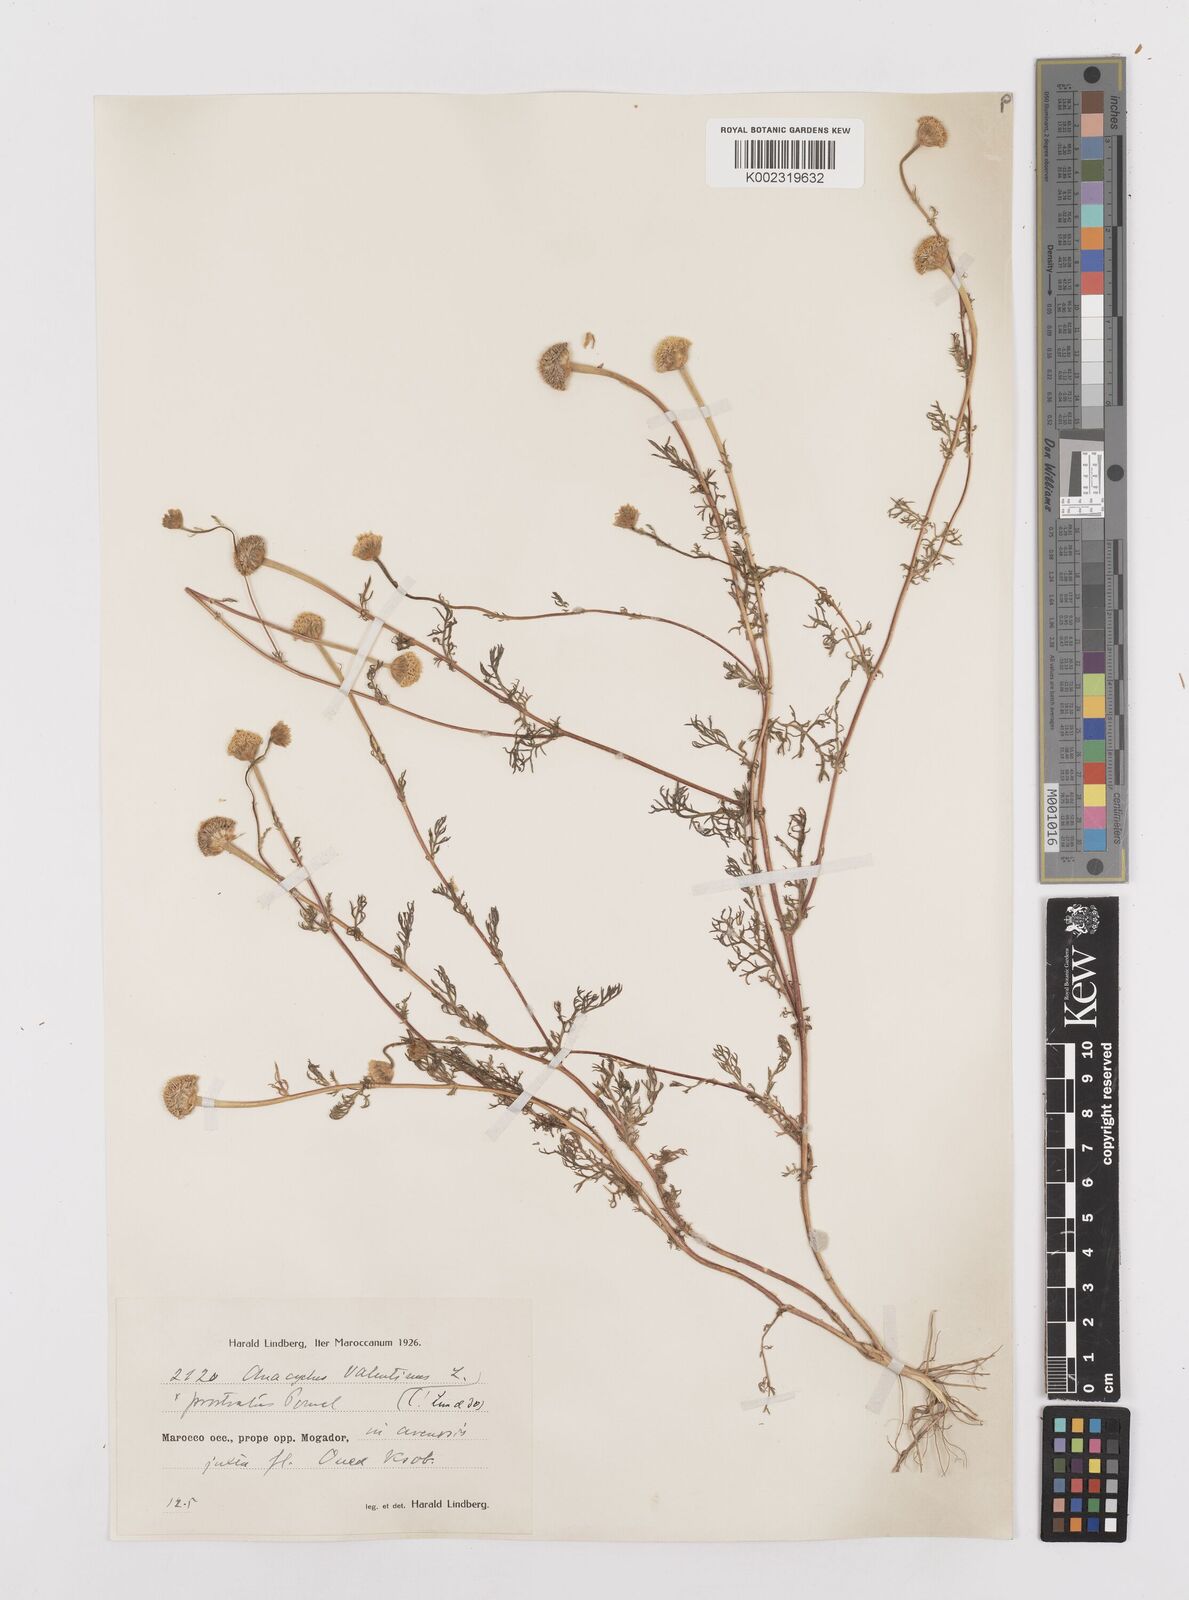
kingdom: Plantae
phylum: Tracheophyta
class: Magnoliopsida
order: Asterales
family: Asteraceae
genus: Anacyclus
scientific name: Anacyclus valentinus
